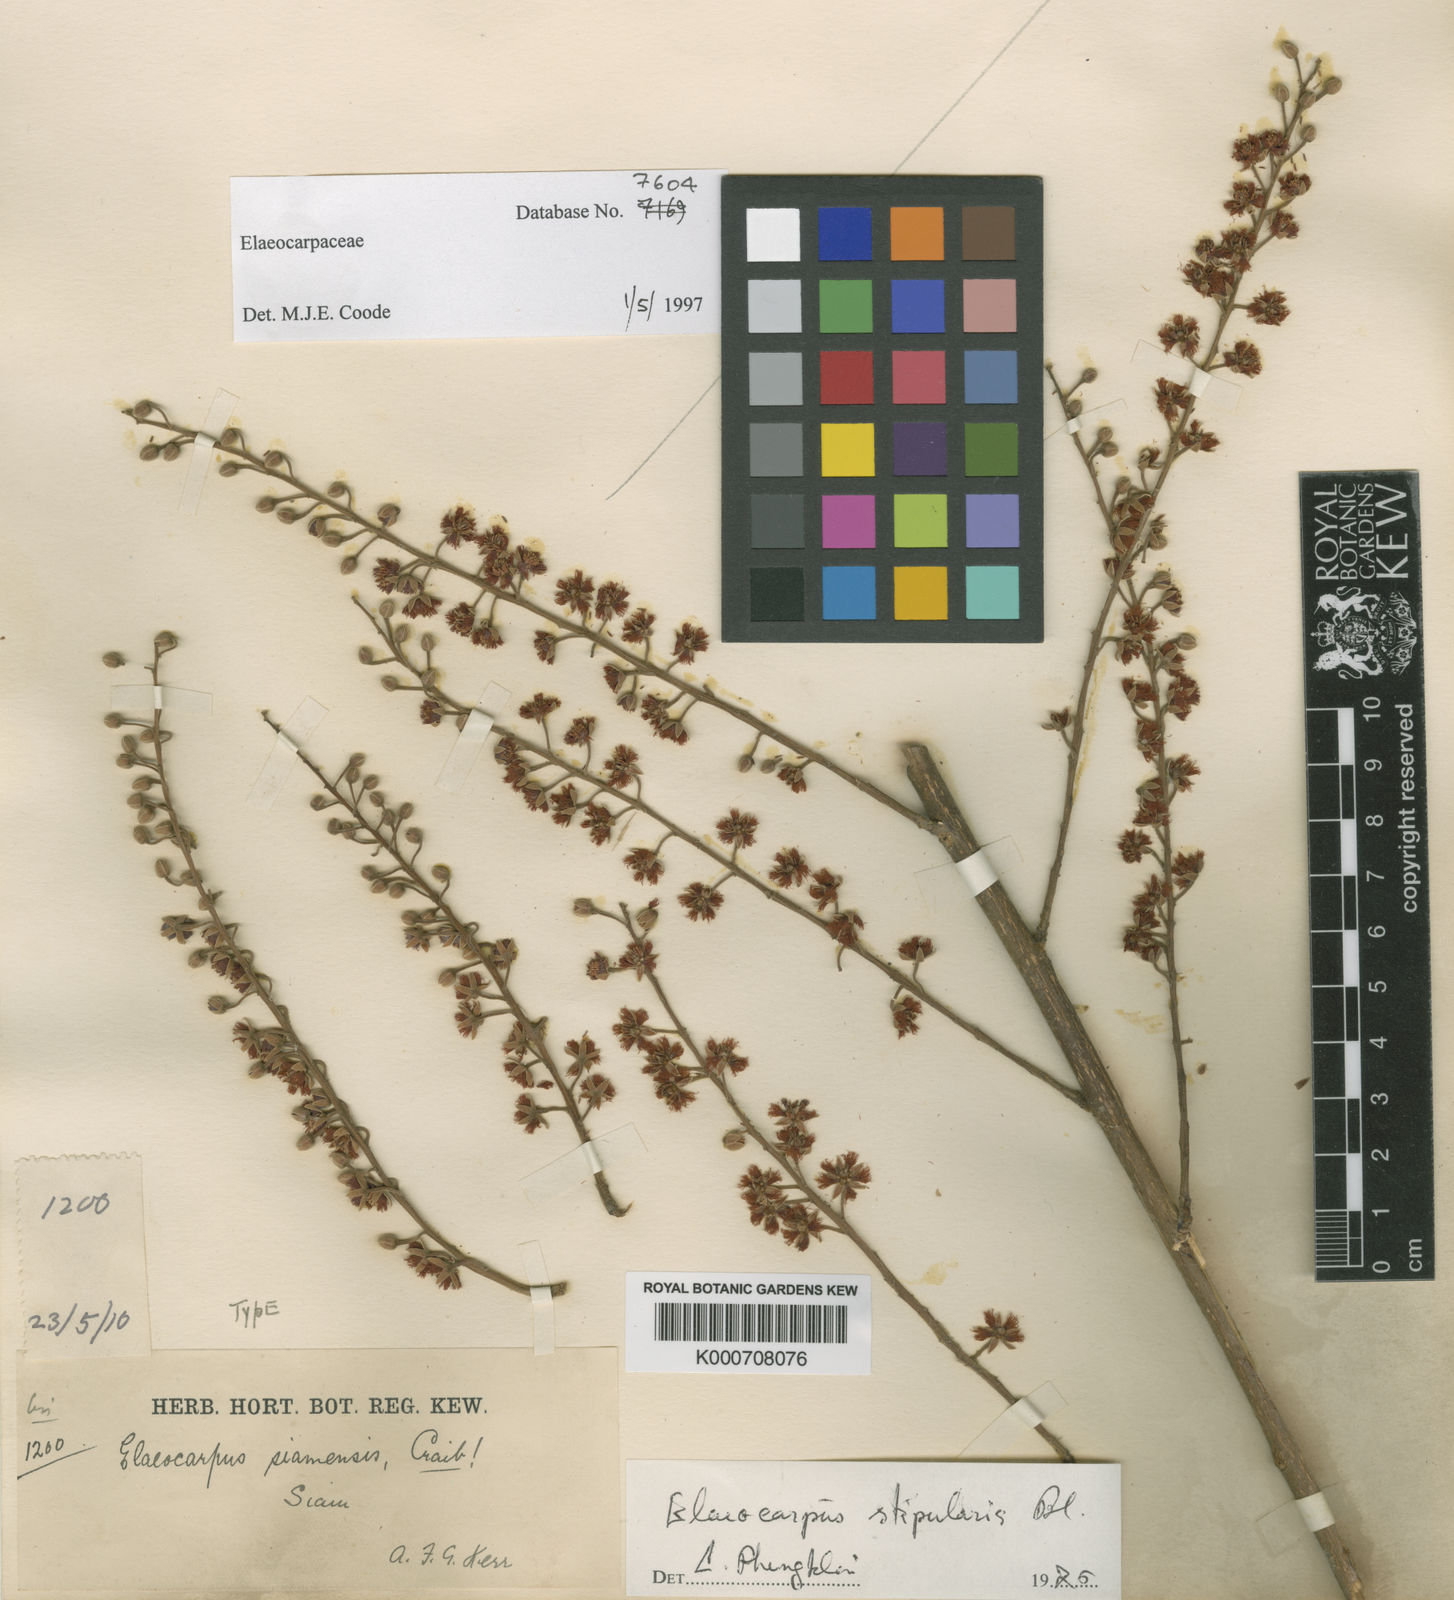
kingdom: Plantae
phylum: Tracheophyta
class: Magnoliopsida
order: Oxalidales
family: Elaeocarpaceae
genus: Elaeocarpus
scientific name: Elaeocarpus stipularis
